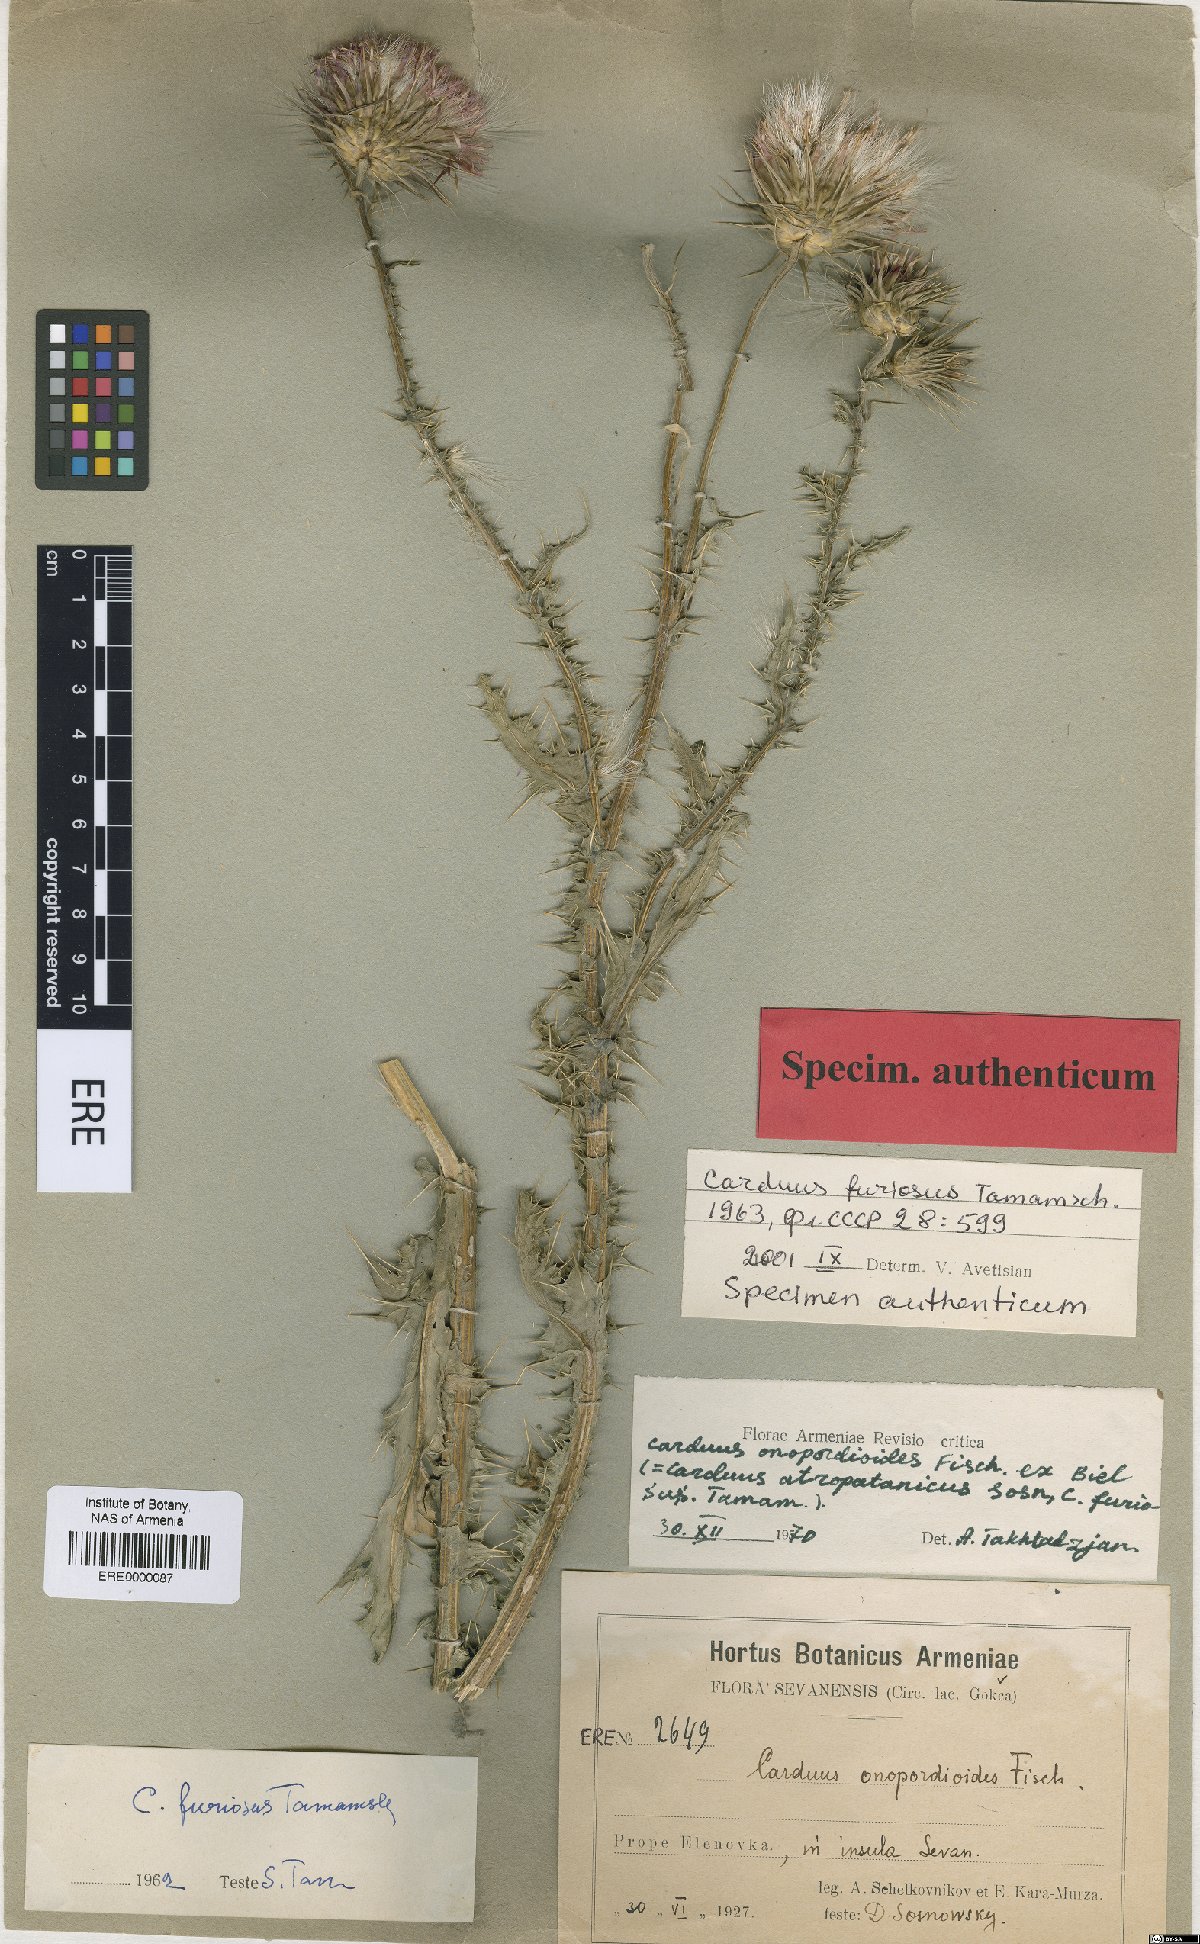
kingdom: Plantae
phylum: Tracheophyta
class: Magnoliopsida
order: Asterales
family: Asteraceae
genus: Carduus
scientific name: Carduus onopordioides
